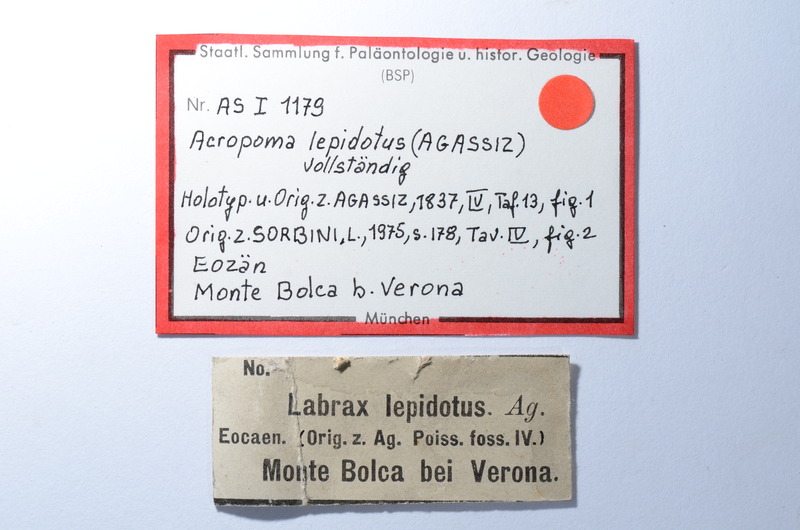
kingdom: Animalia
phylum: Chordata
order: Perciformes
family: Acropomatidae
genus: Acropoma
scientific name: Acropoma lepidotum
